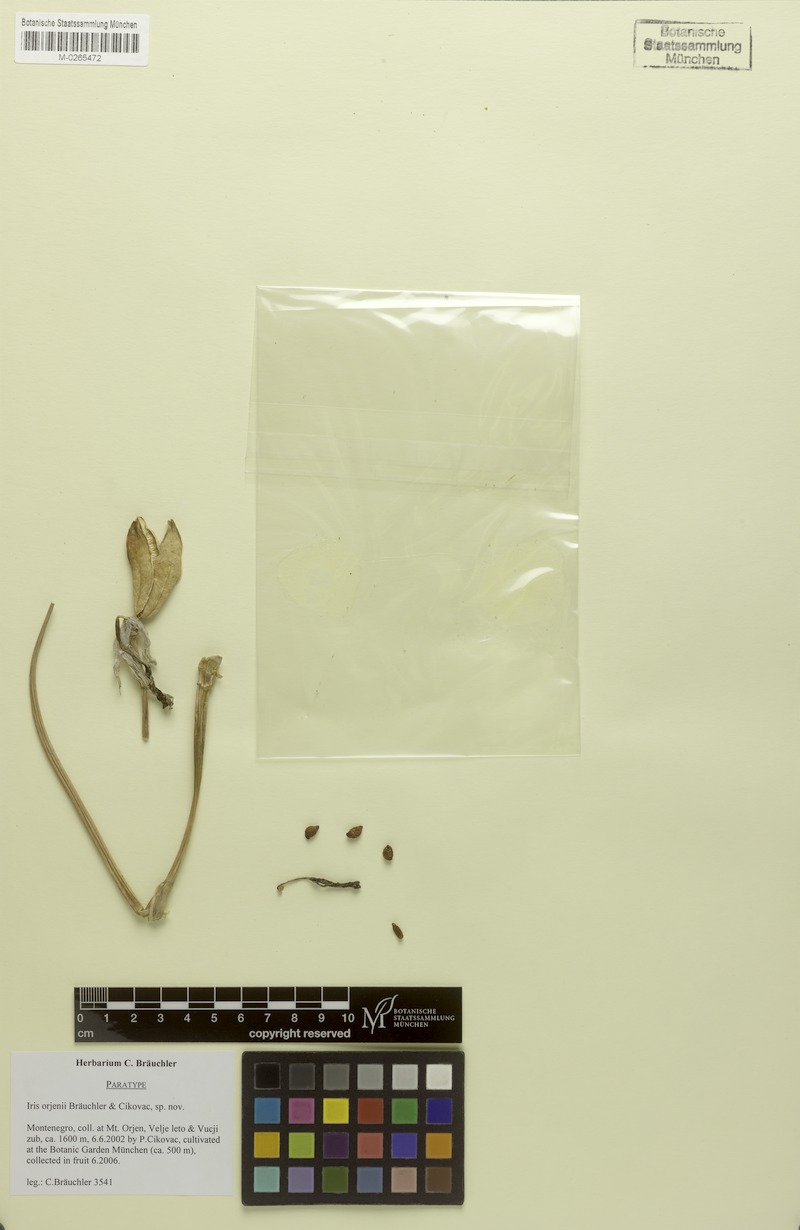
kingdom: Plantae
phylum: Tracheophyta
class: Liliopsida
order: Asparagales
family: Iridaceae
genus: Iris
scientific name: Iris orjenii
